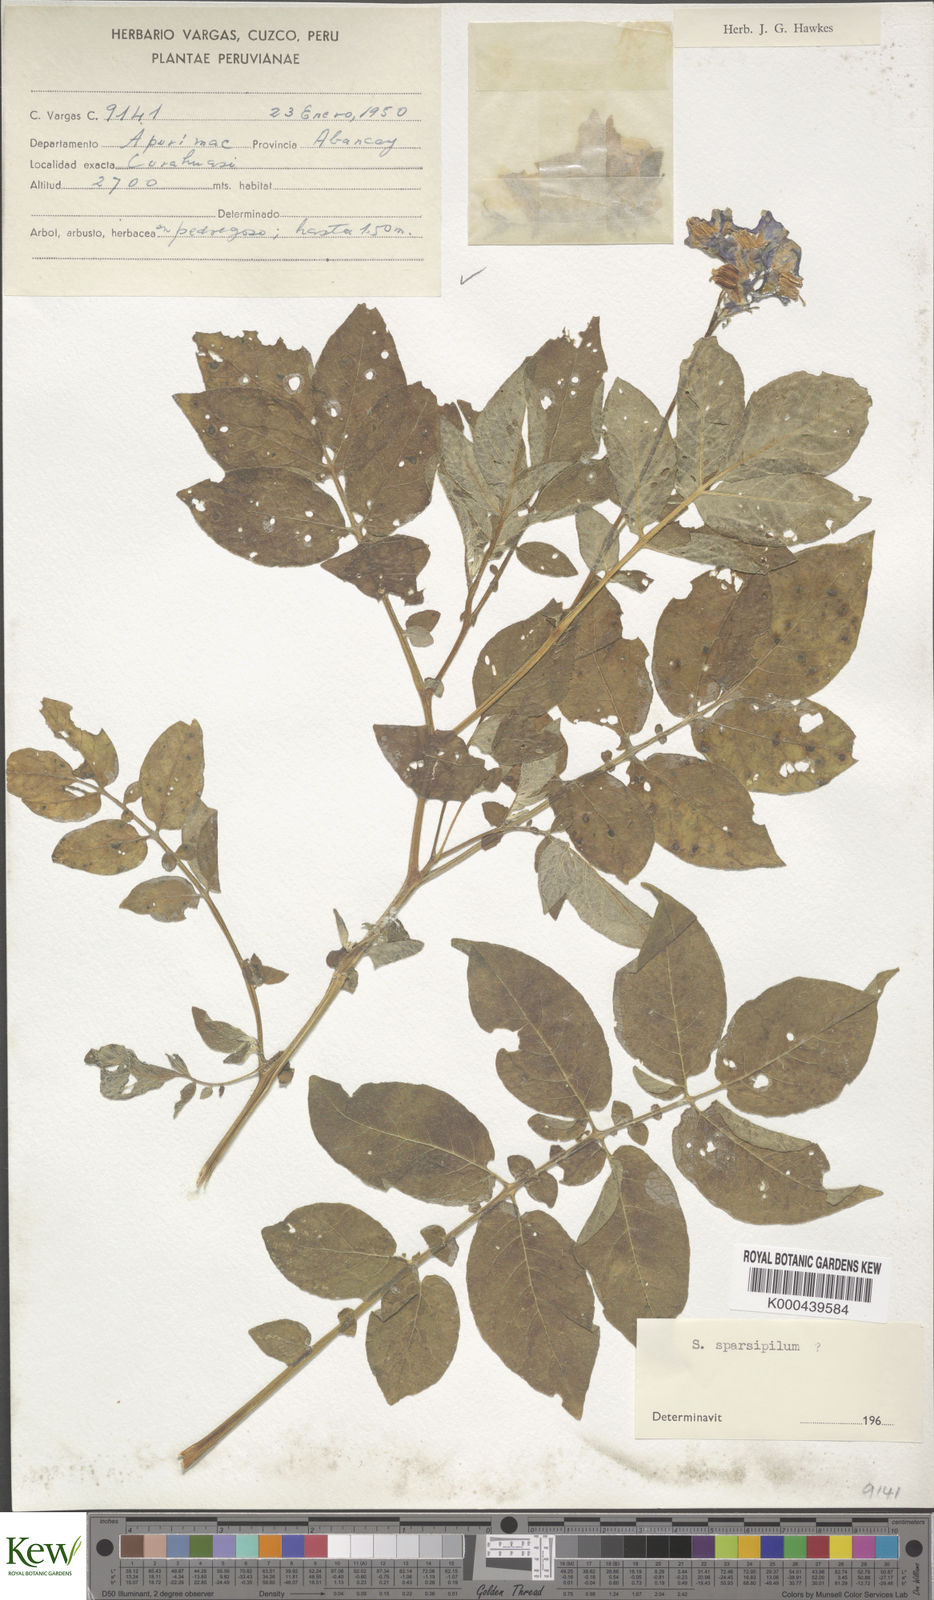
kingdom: Plantae
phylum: Tracheophyta
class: Magnoliopsida
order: Solanales
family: Solanaceae
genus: Solanum
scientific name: Solanum brevicaule
